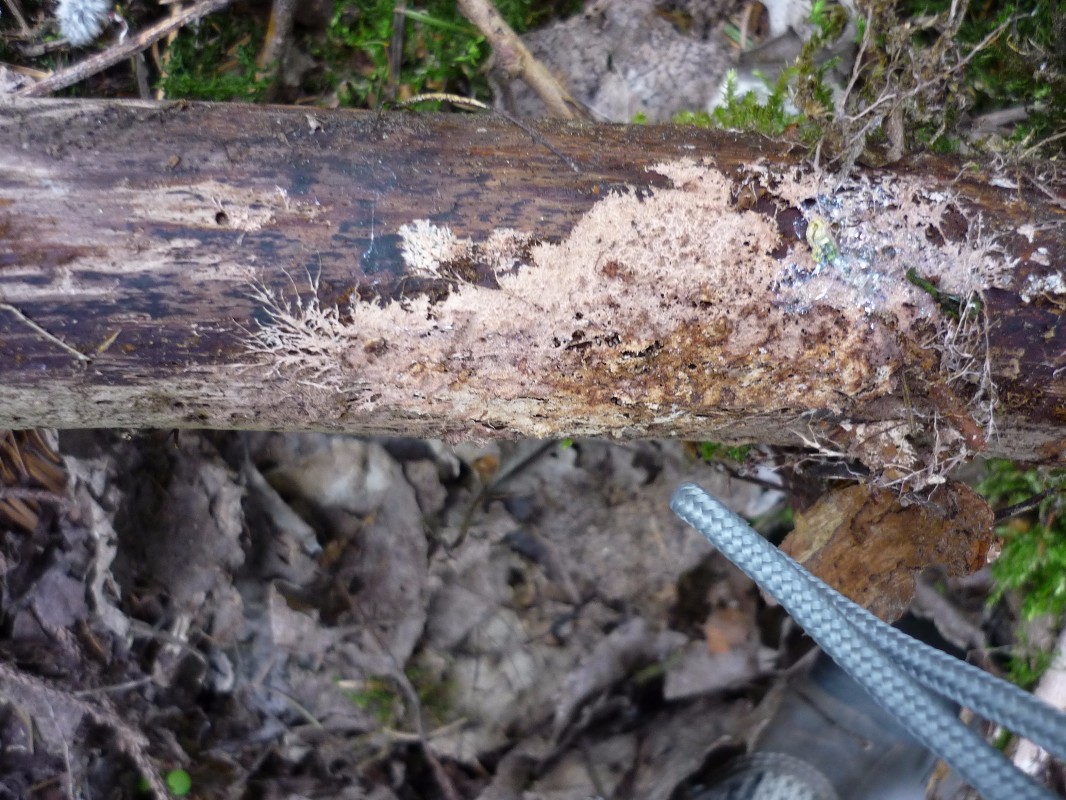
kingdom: Fungi
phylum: Basidiomycota
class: Agaricomycetes
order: Polyporales
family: Steccherinaceae
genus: Steccherinum
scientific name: Steccherinum fimbriatum
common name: trådet skønpig
